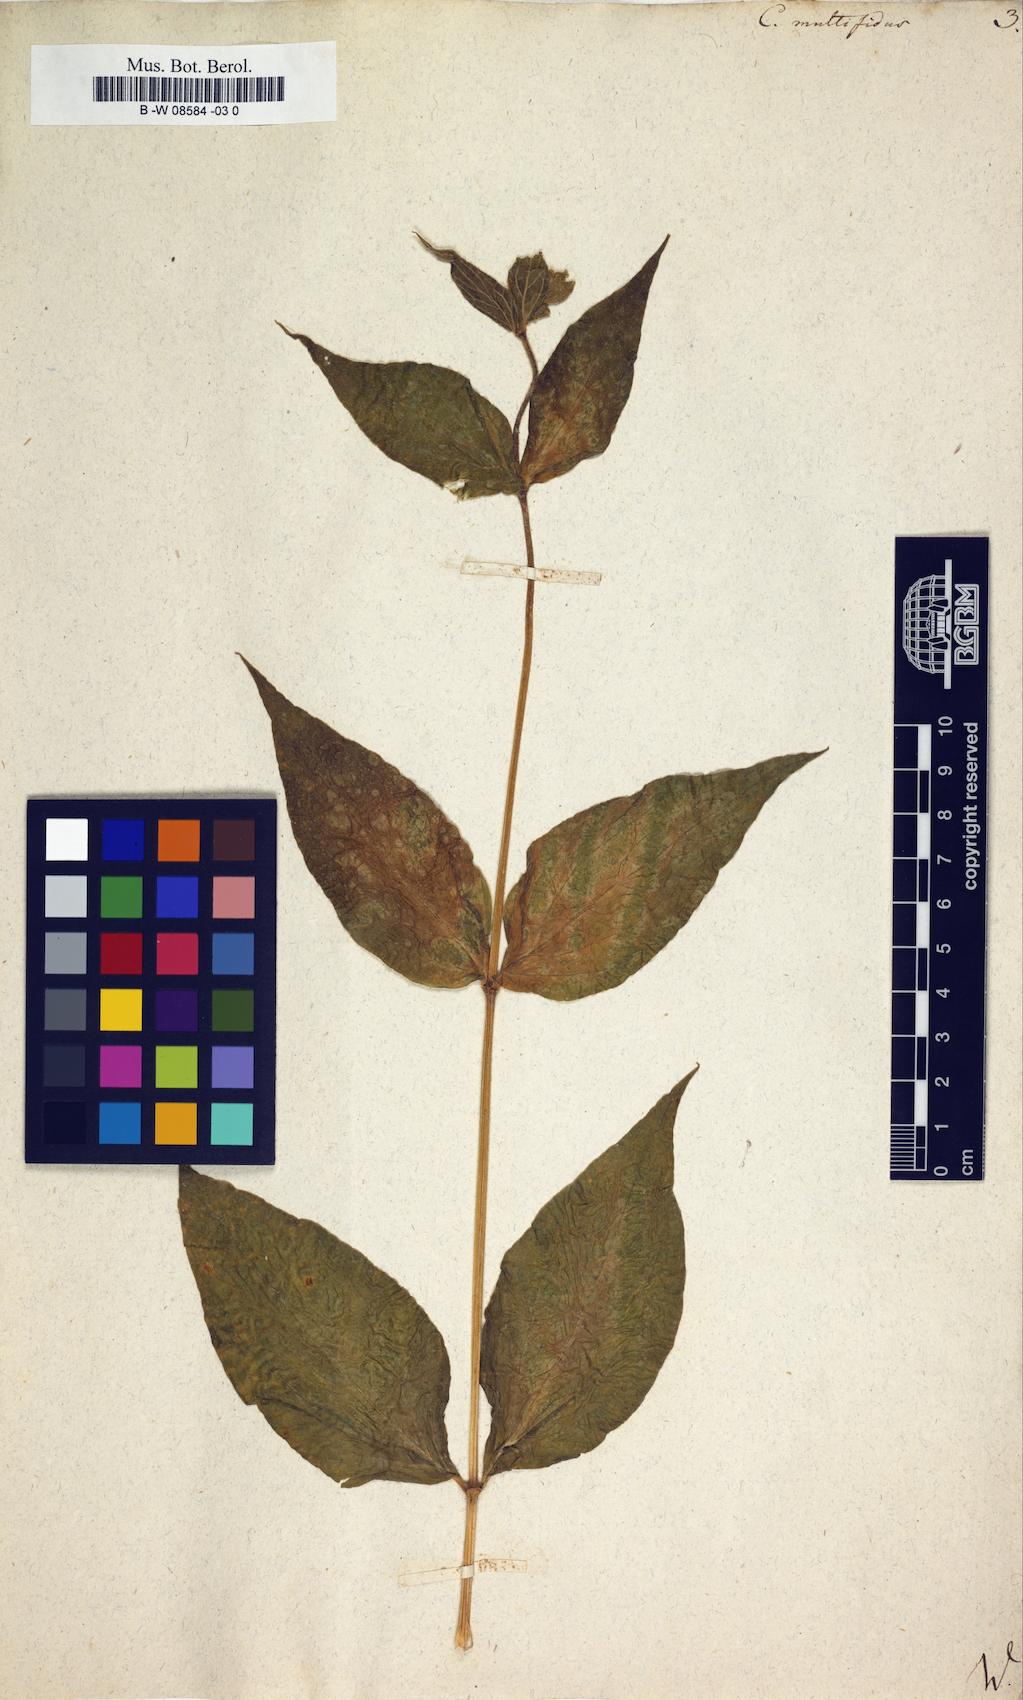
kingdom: Plantae
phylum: Tracheophyta
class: Magnoliopsida
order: Caryophyllales
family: Caryophyllaceae
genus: Silene
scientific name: Silene macrophylla
